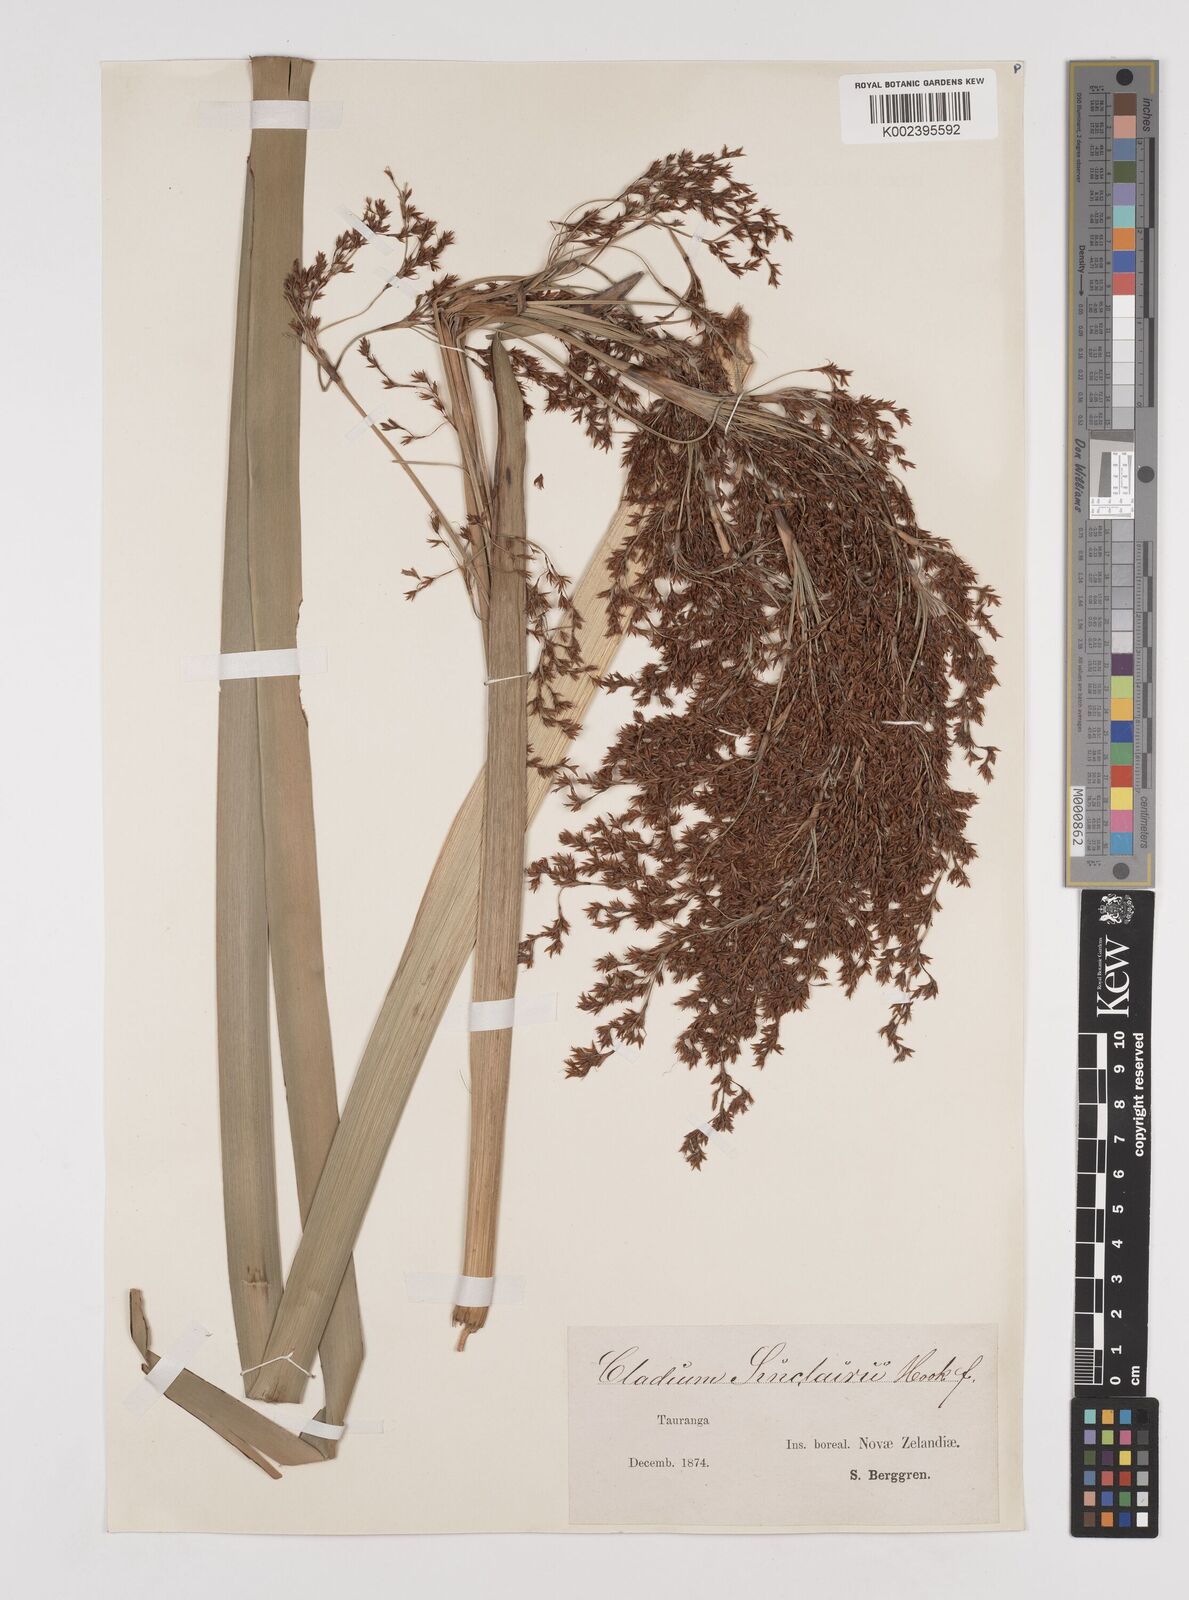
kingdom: Plantae
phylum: Tracheophyta
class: Liliopsida
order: Poales
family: Cyperaceae
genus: Machaerina
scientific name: Machaerina sinclairii
